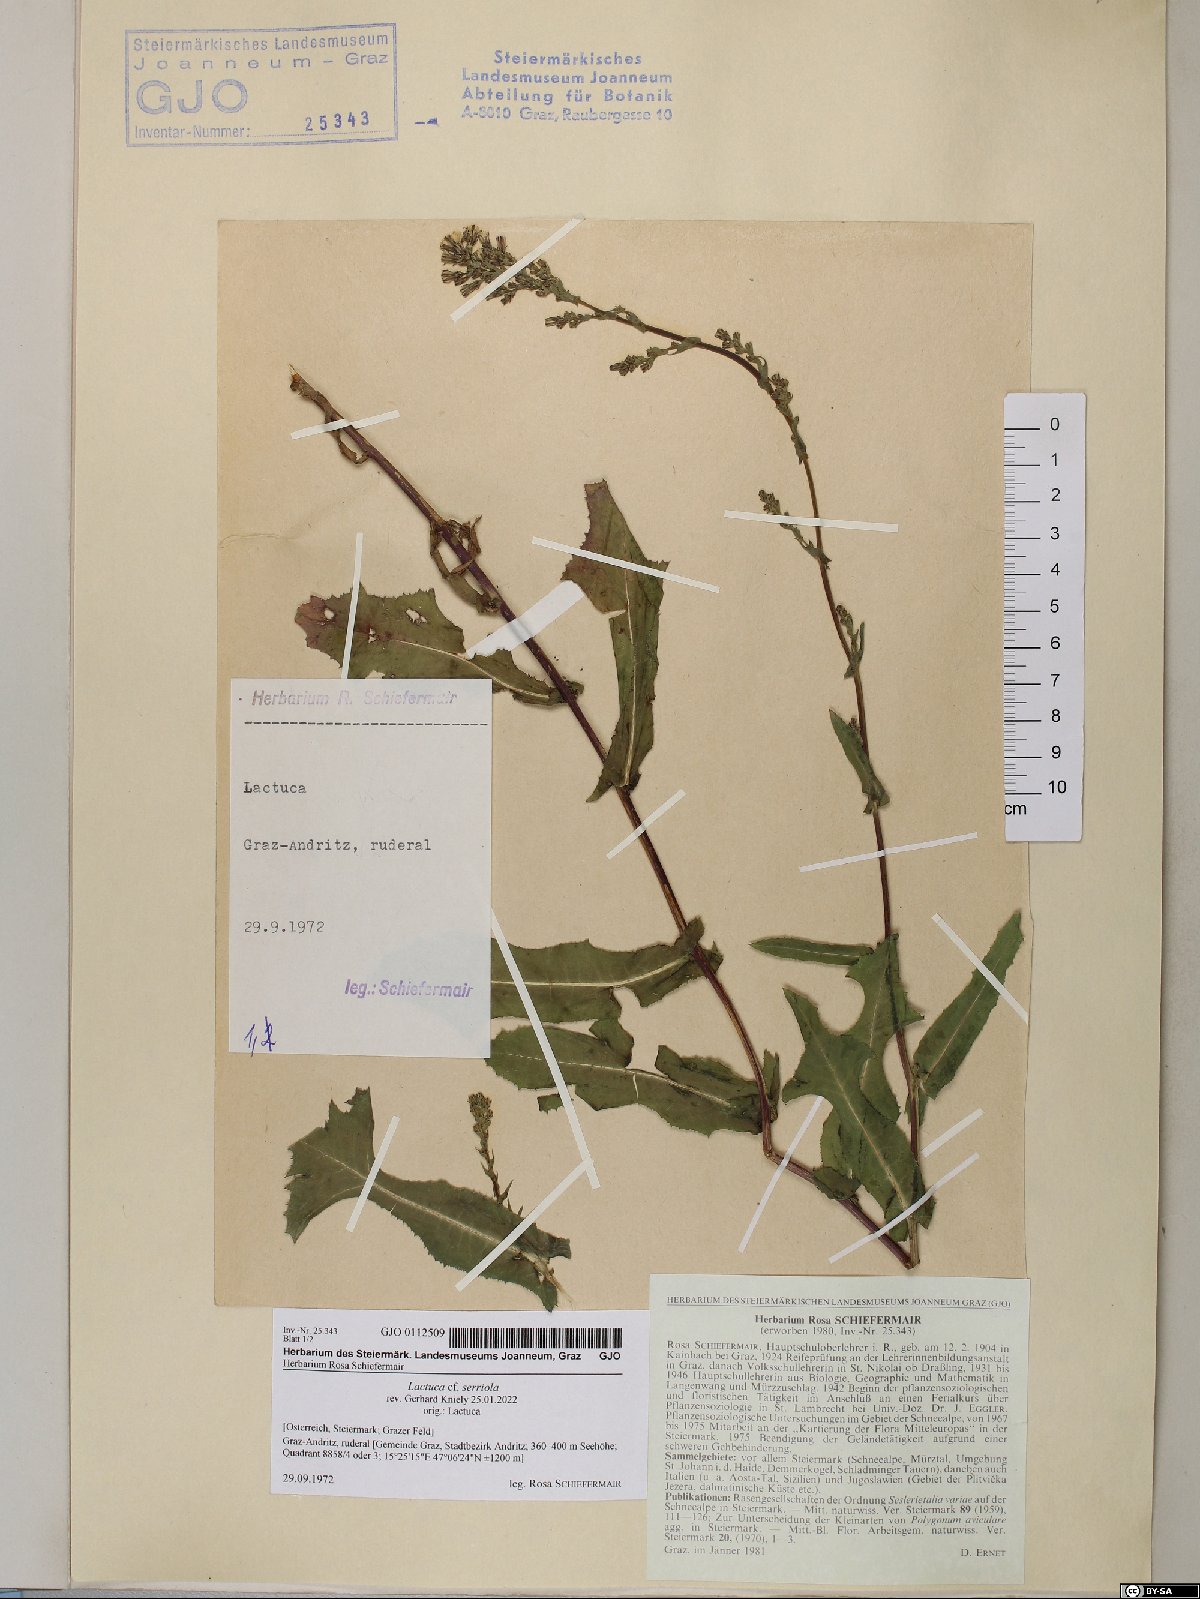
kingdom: Plantae
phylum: Tracheophyta
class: Magnoliopsida
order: Asterales
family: Asteraceae
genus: Lactuca
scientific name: Lactuca serriola
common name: Prickly lettuce
